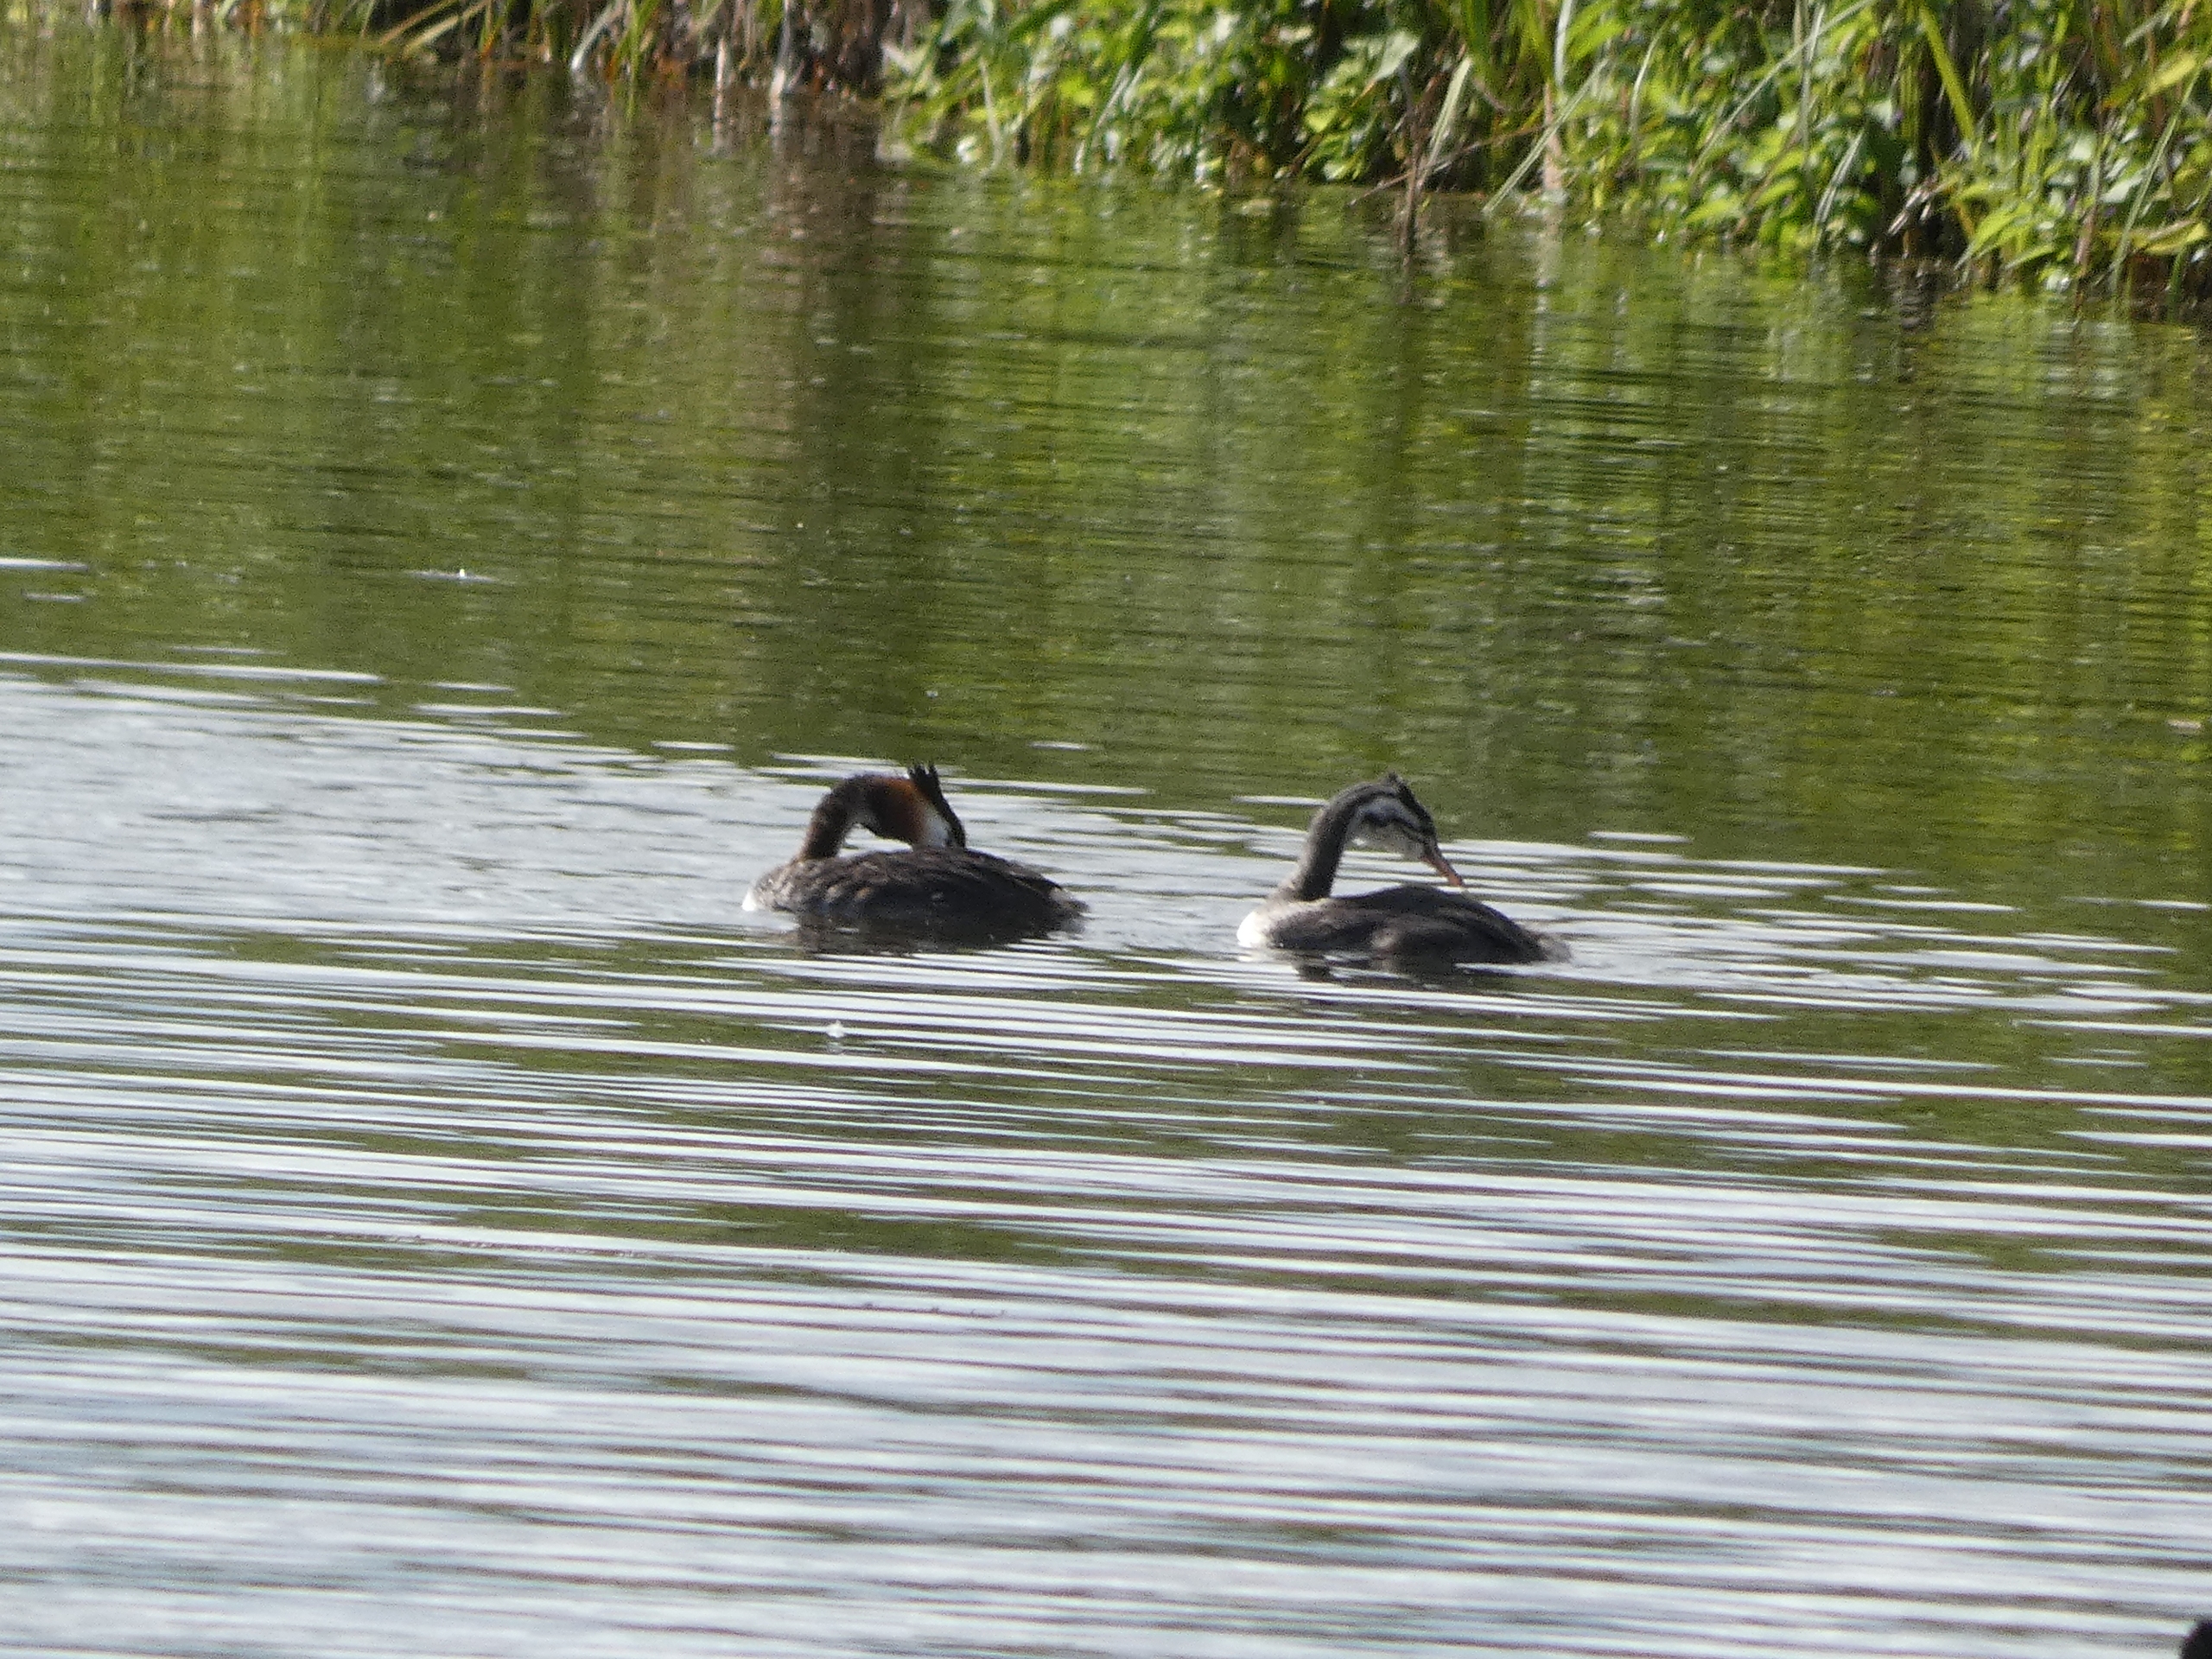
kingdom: Animalia
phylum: Chordata
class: Aves
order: Podicipediformes
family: Podicipedidae
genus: Podiceps
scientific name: Podiceps cristatus
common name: Toppet lappedykker
